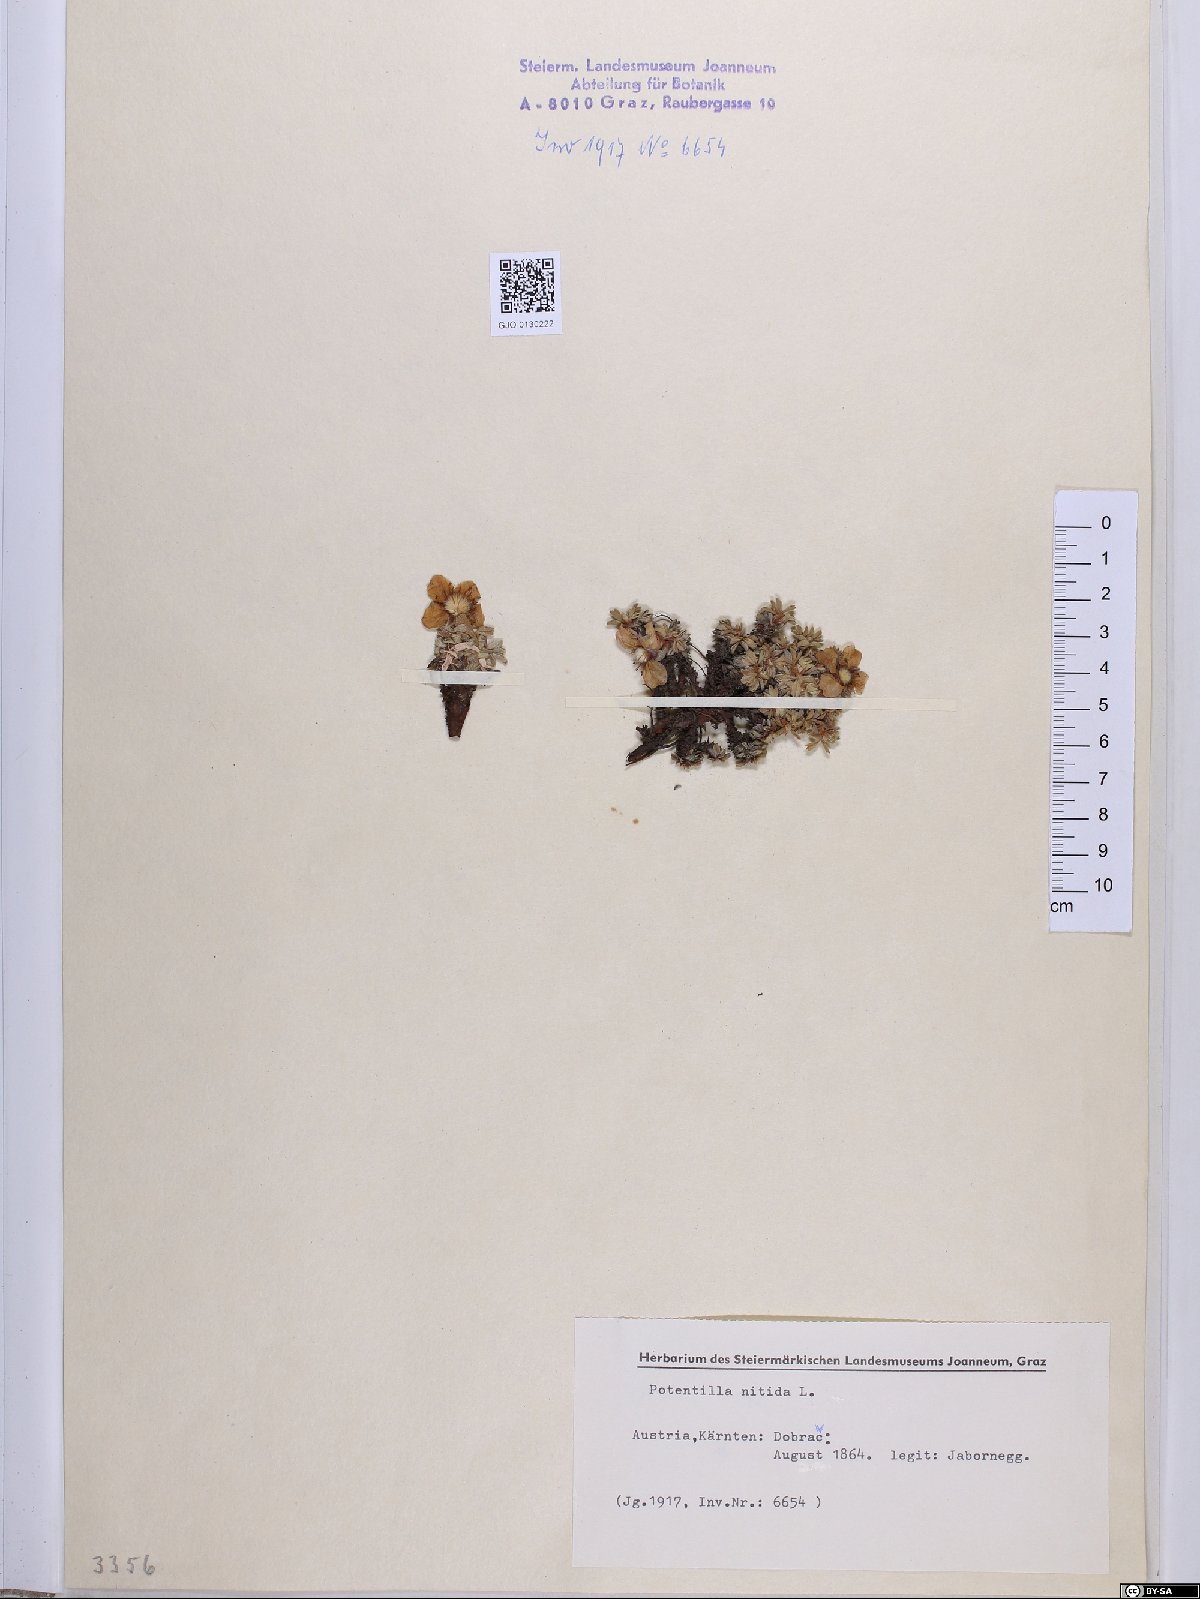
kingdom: Plantae
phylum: Tracheophyta
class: Magnoliopsida
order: Rosales
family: Rosaceae
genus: Potentilla
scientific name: Potentilla nitida
